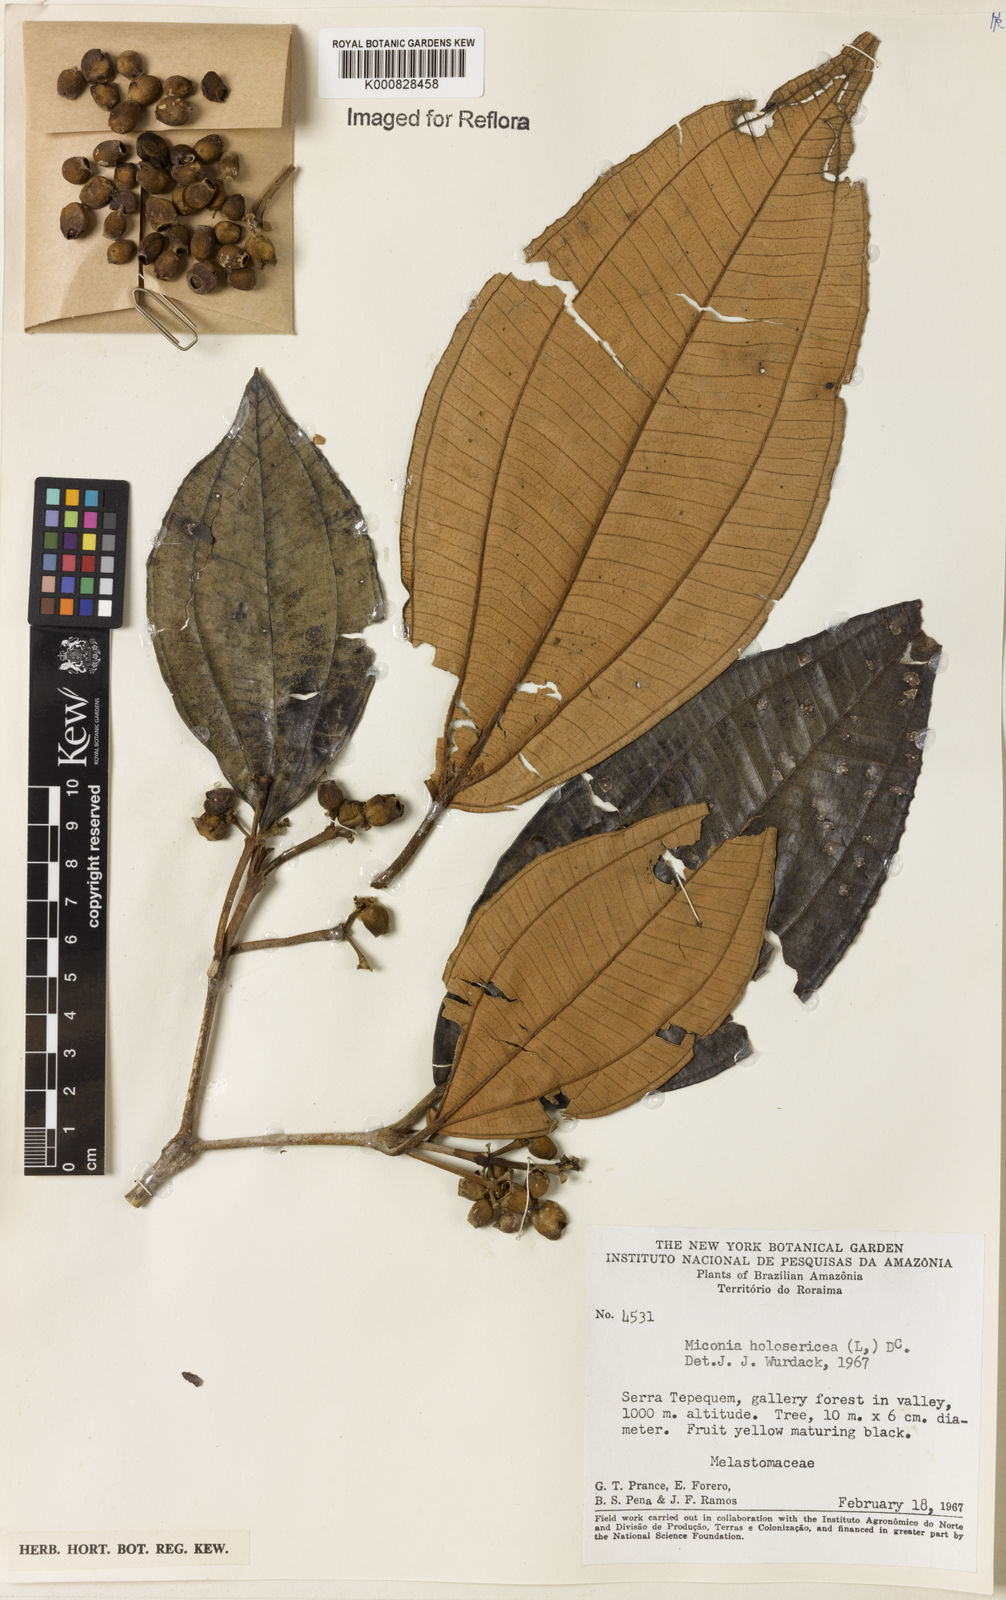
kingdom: Plantae
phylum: Tracheophyta
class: Magnoliopsida
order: Myrtales
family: Melastomataceae
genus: Miconia
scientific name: Miconia holosericea
